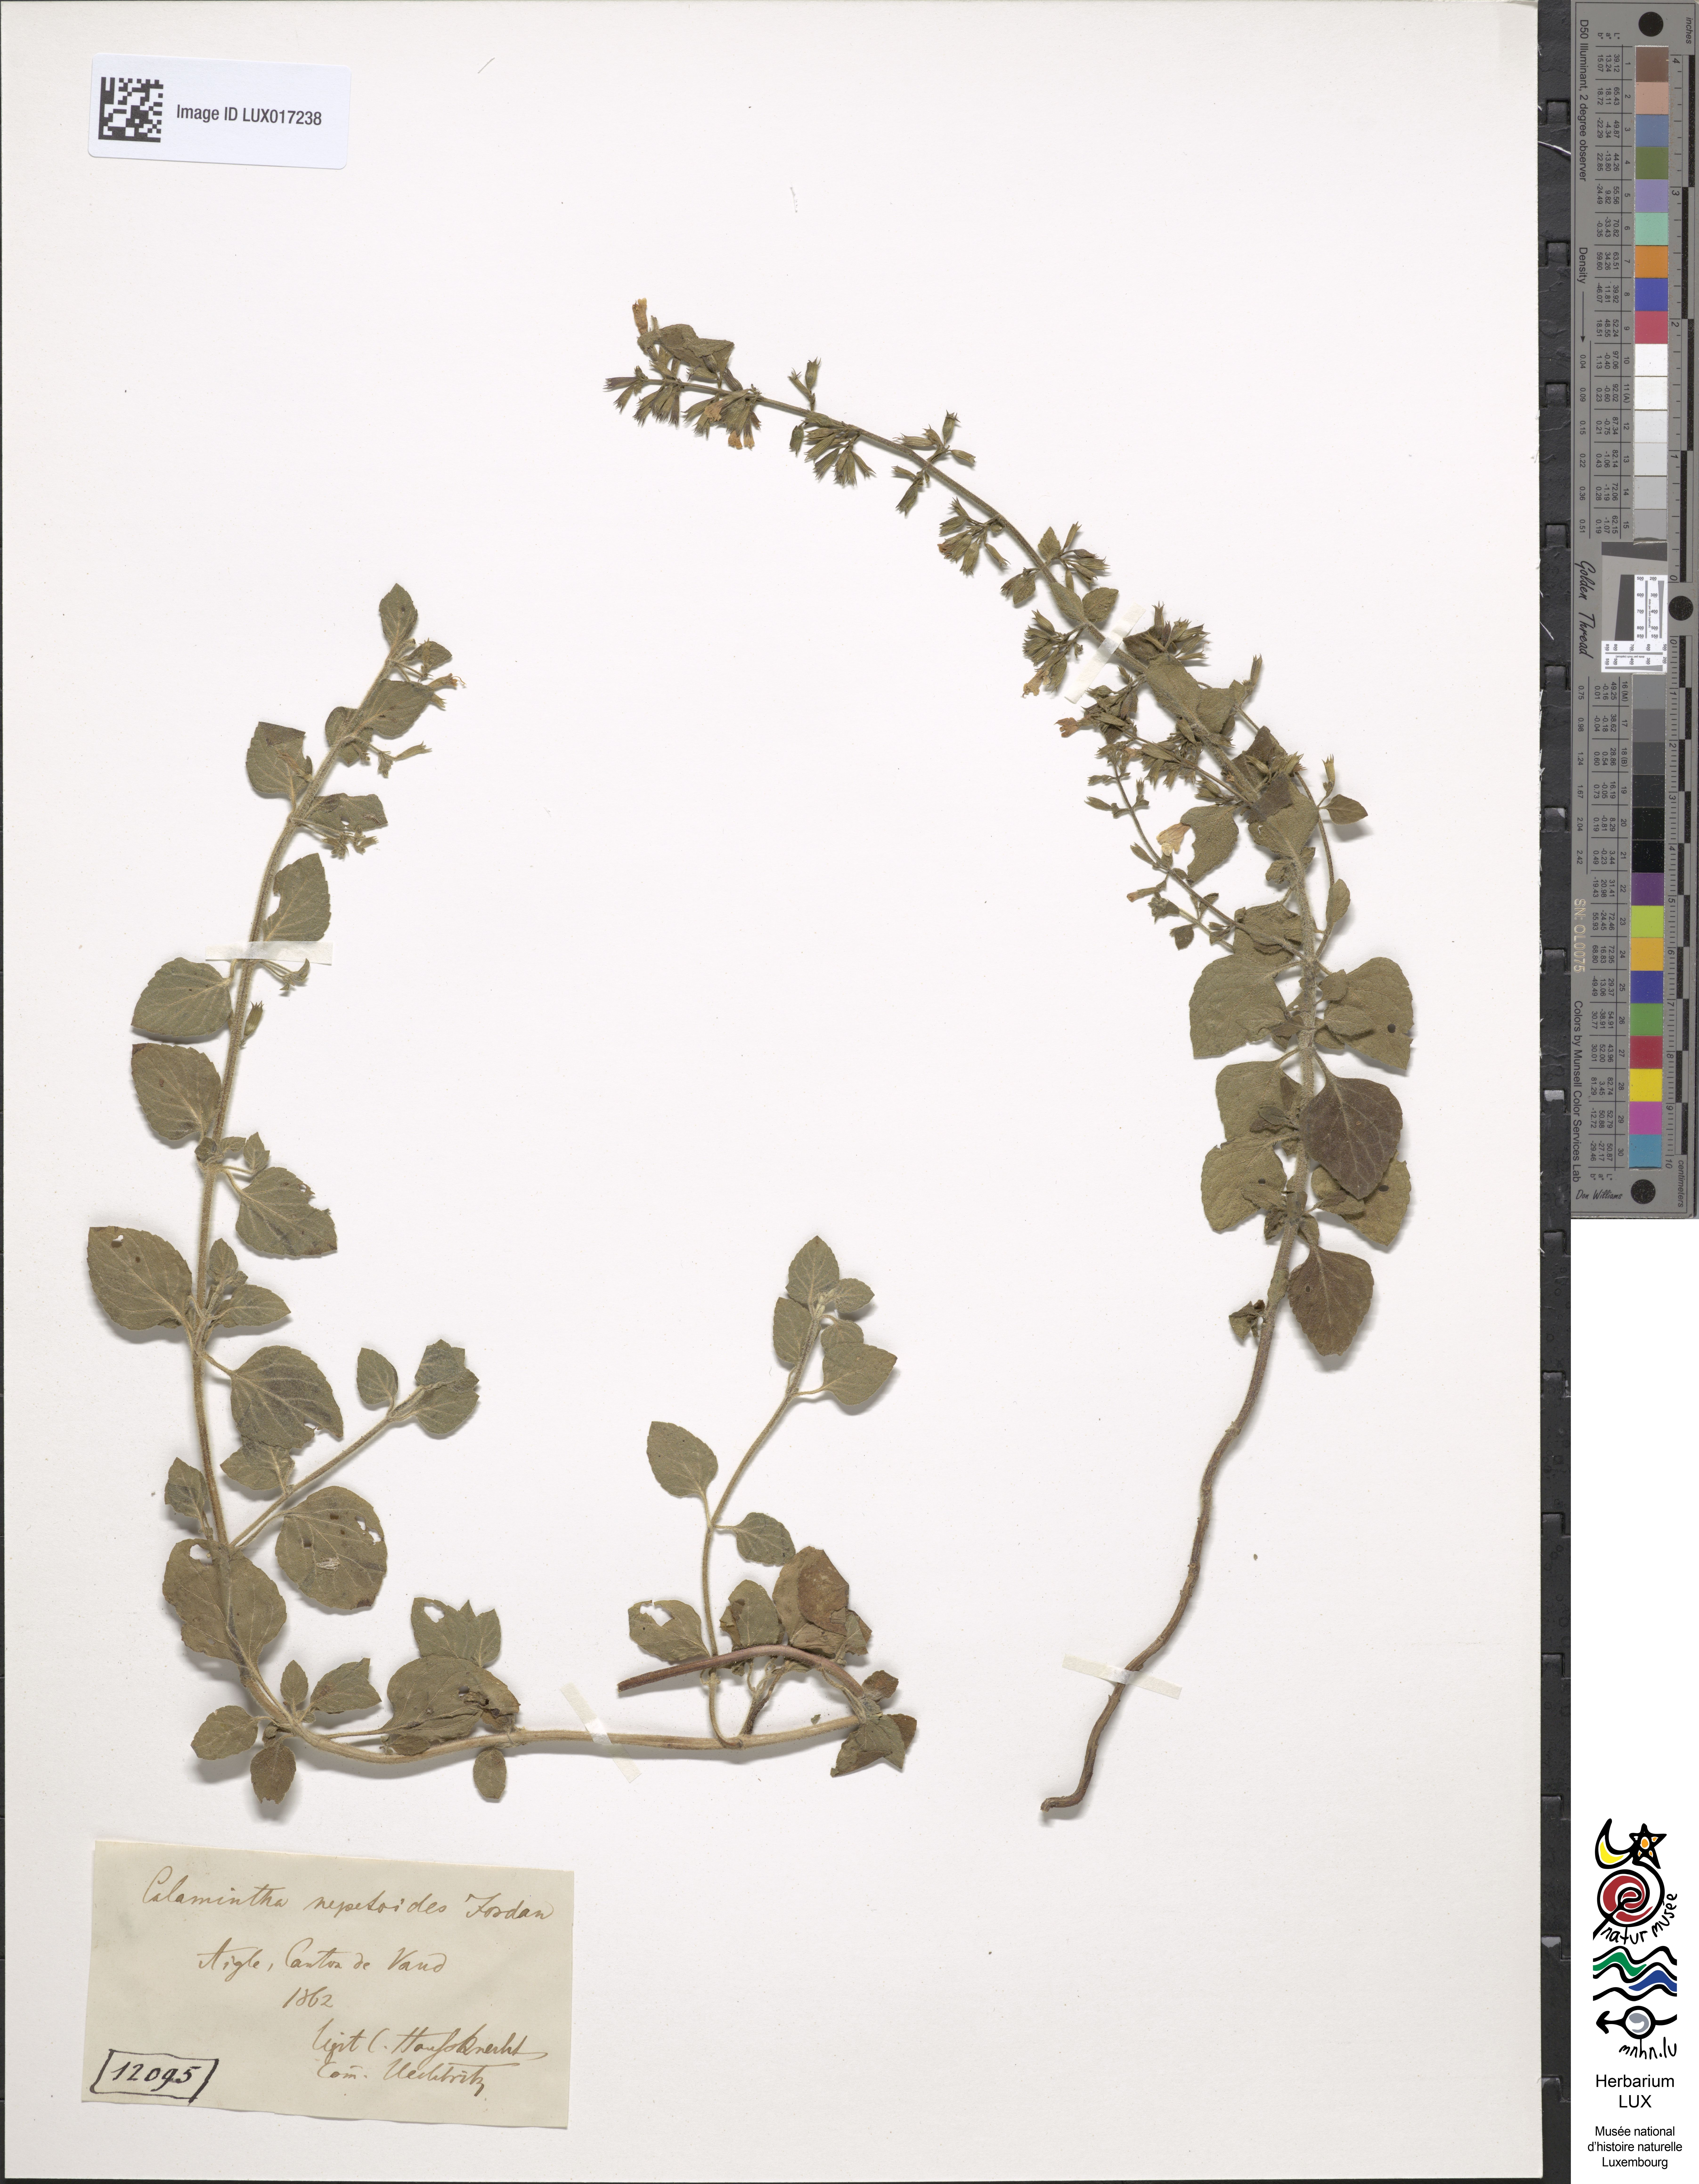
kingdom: Plantae
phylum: Tracheophyta
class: Magnoliopsida
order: Lamiales
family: Lamiaceae
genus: Clinopodium
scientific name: Clinopodium nepeta
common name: Lesser calamint
